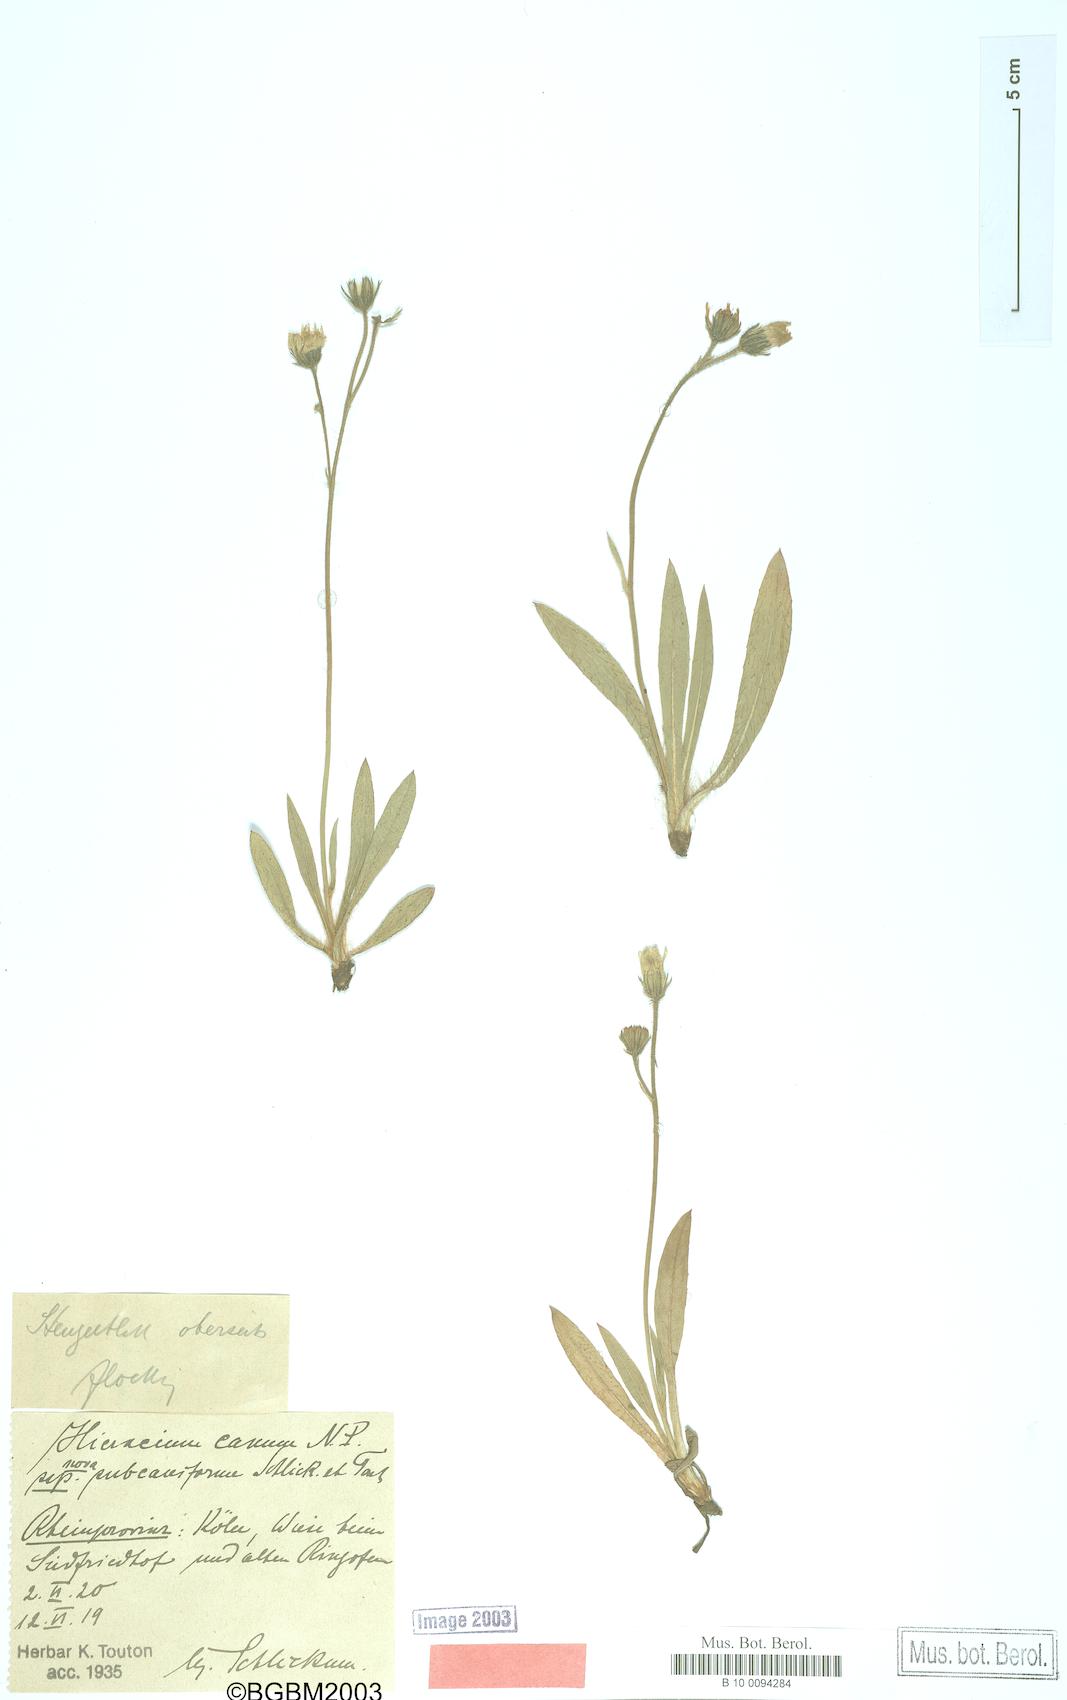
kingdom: Plantae
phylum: Tracheophyta
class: Magnoliopsida
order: Asterales
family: Asteraceae
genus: Pilosella
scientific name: Pilosella cana
